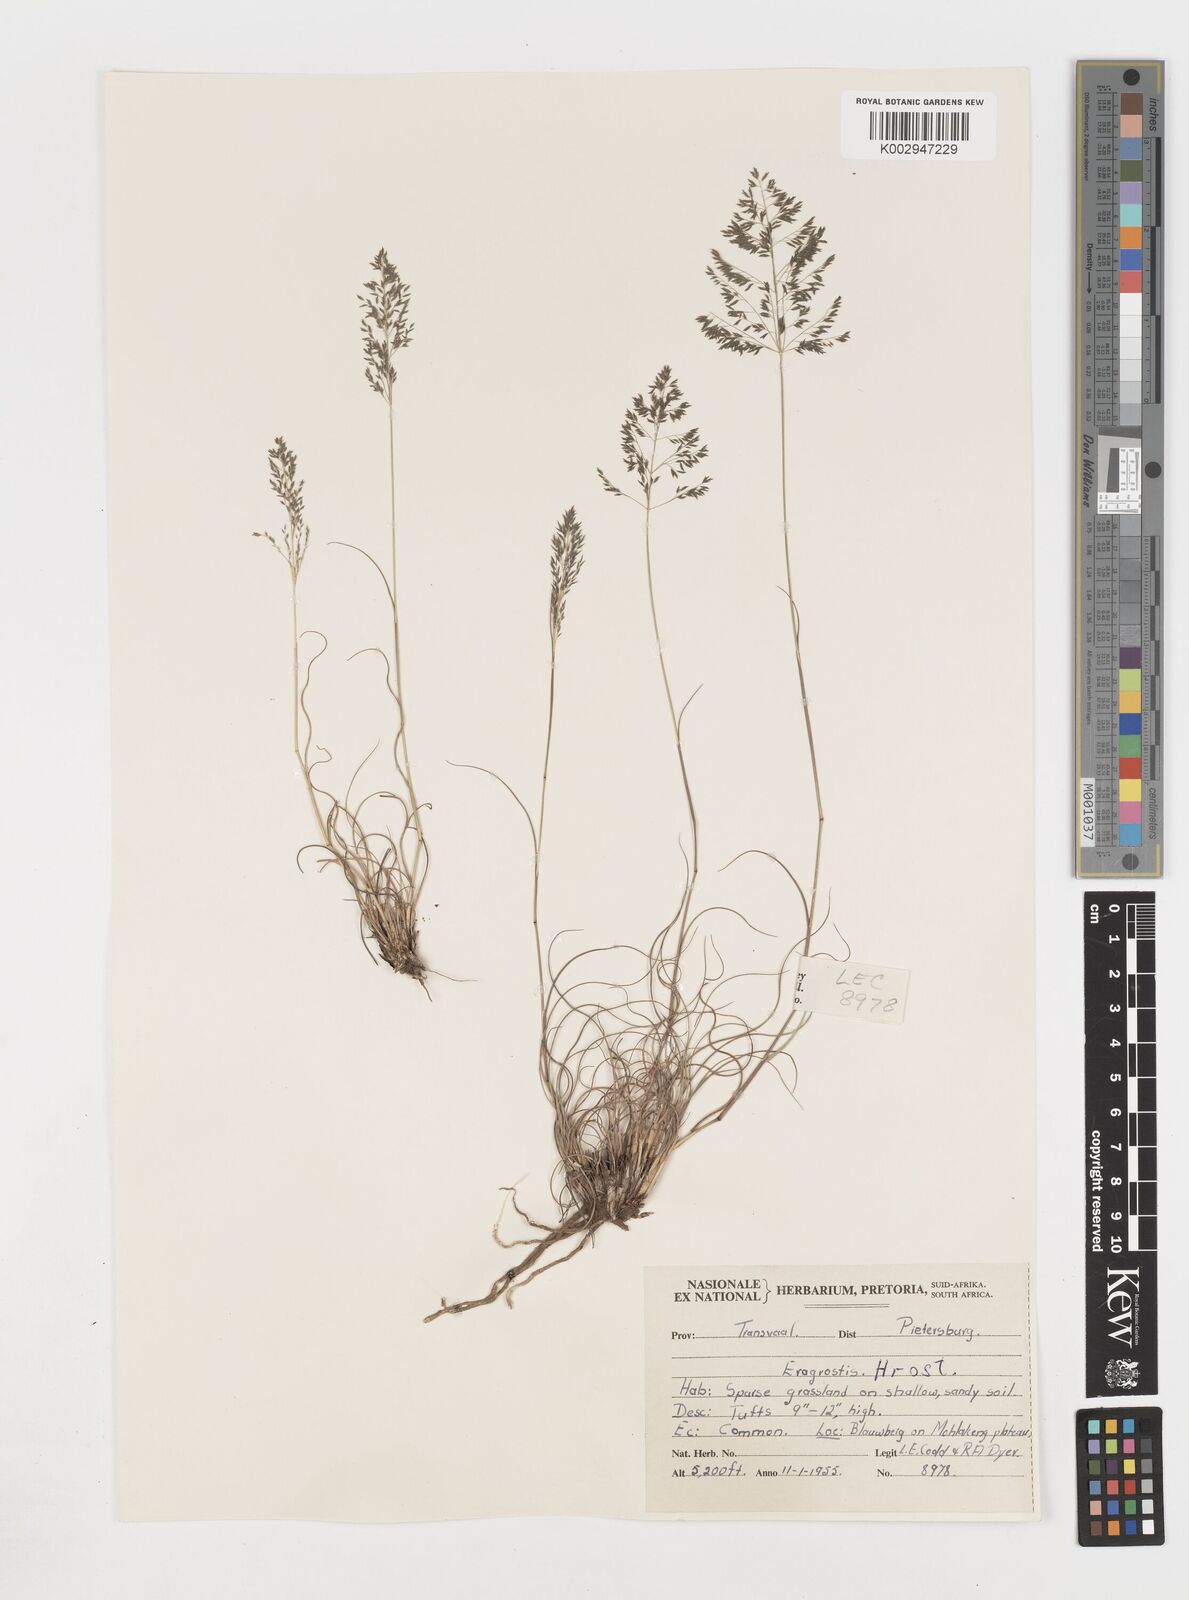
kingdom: Plantae
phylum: Tracheophyta
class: Liliopsida
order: Poales
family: Poaceae
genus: Eragrostis
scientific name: Eragrostis
